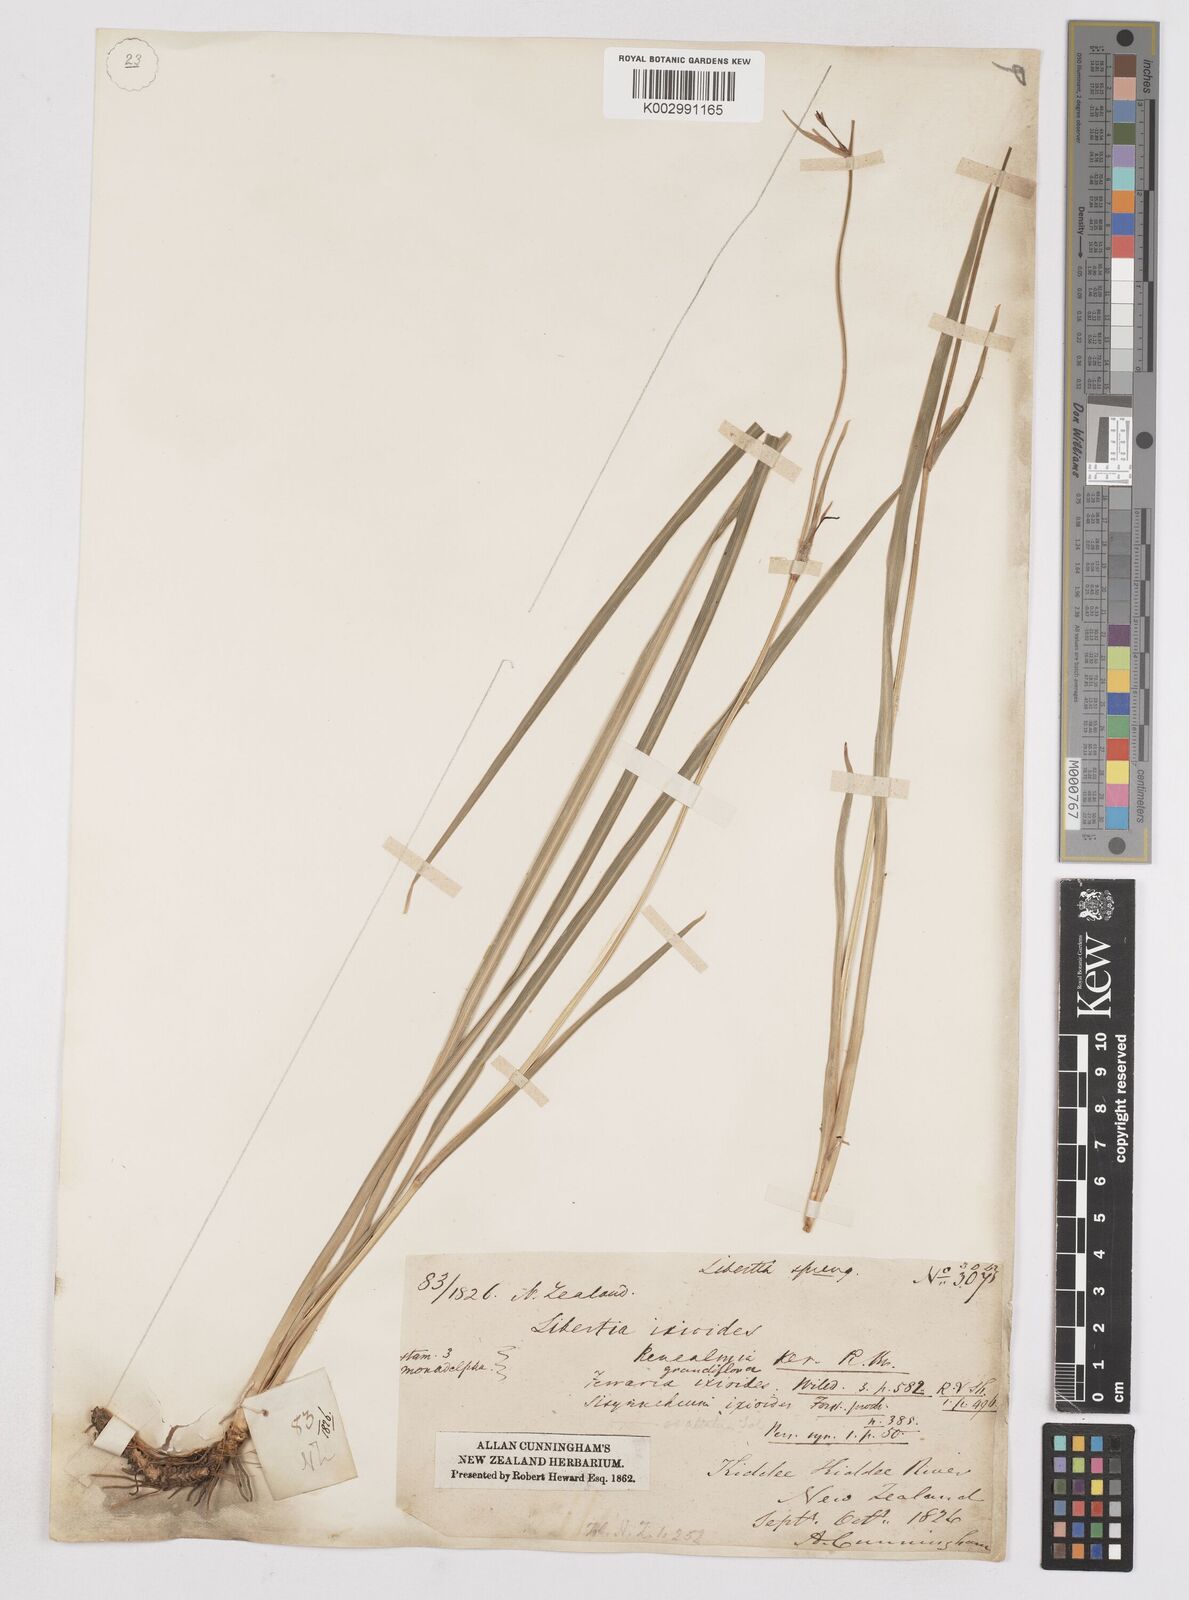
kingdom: Plantae
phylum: Tracheophyta
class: Liliopsida
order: Asparagales
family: Iridaceae
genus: Libertia
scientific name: Libertia ixioides
